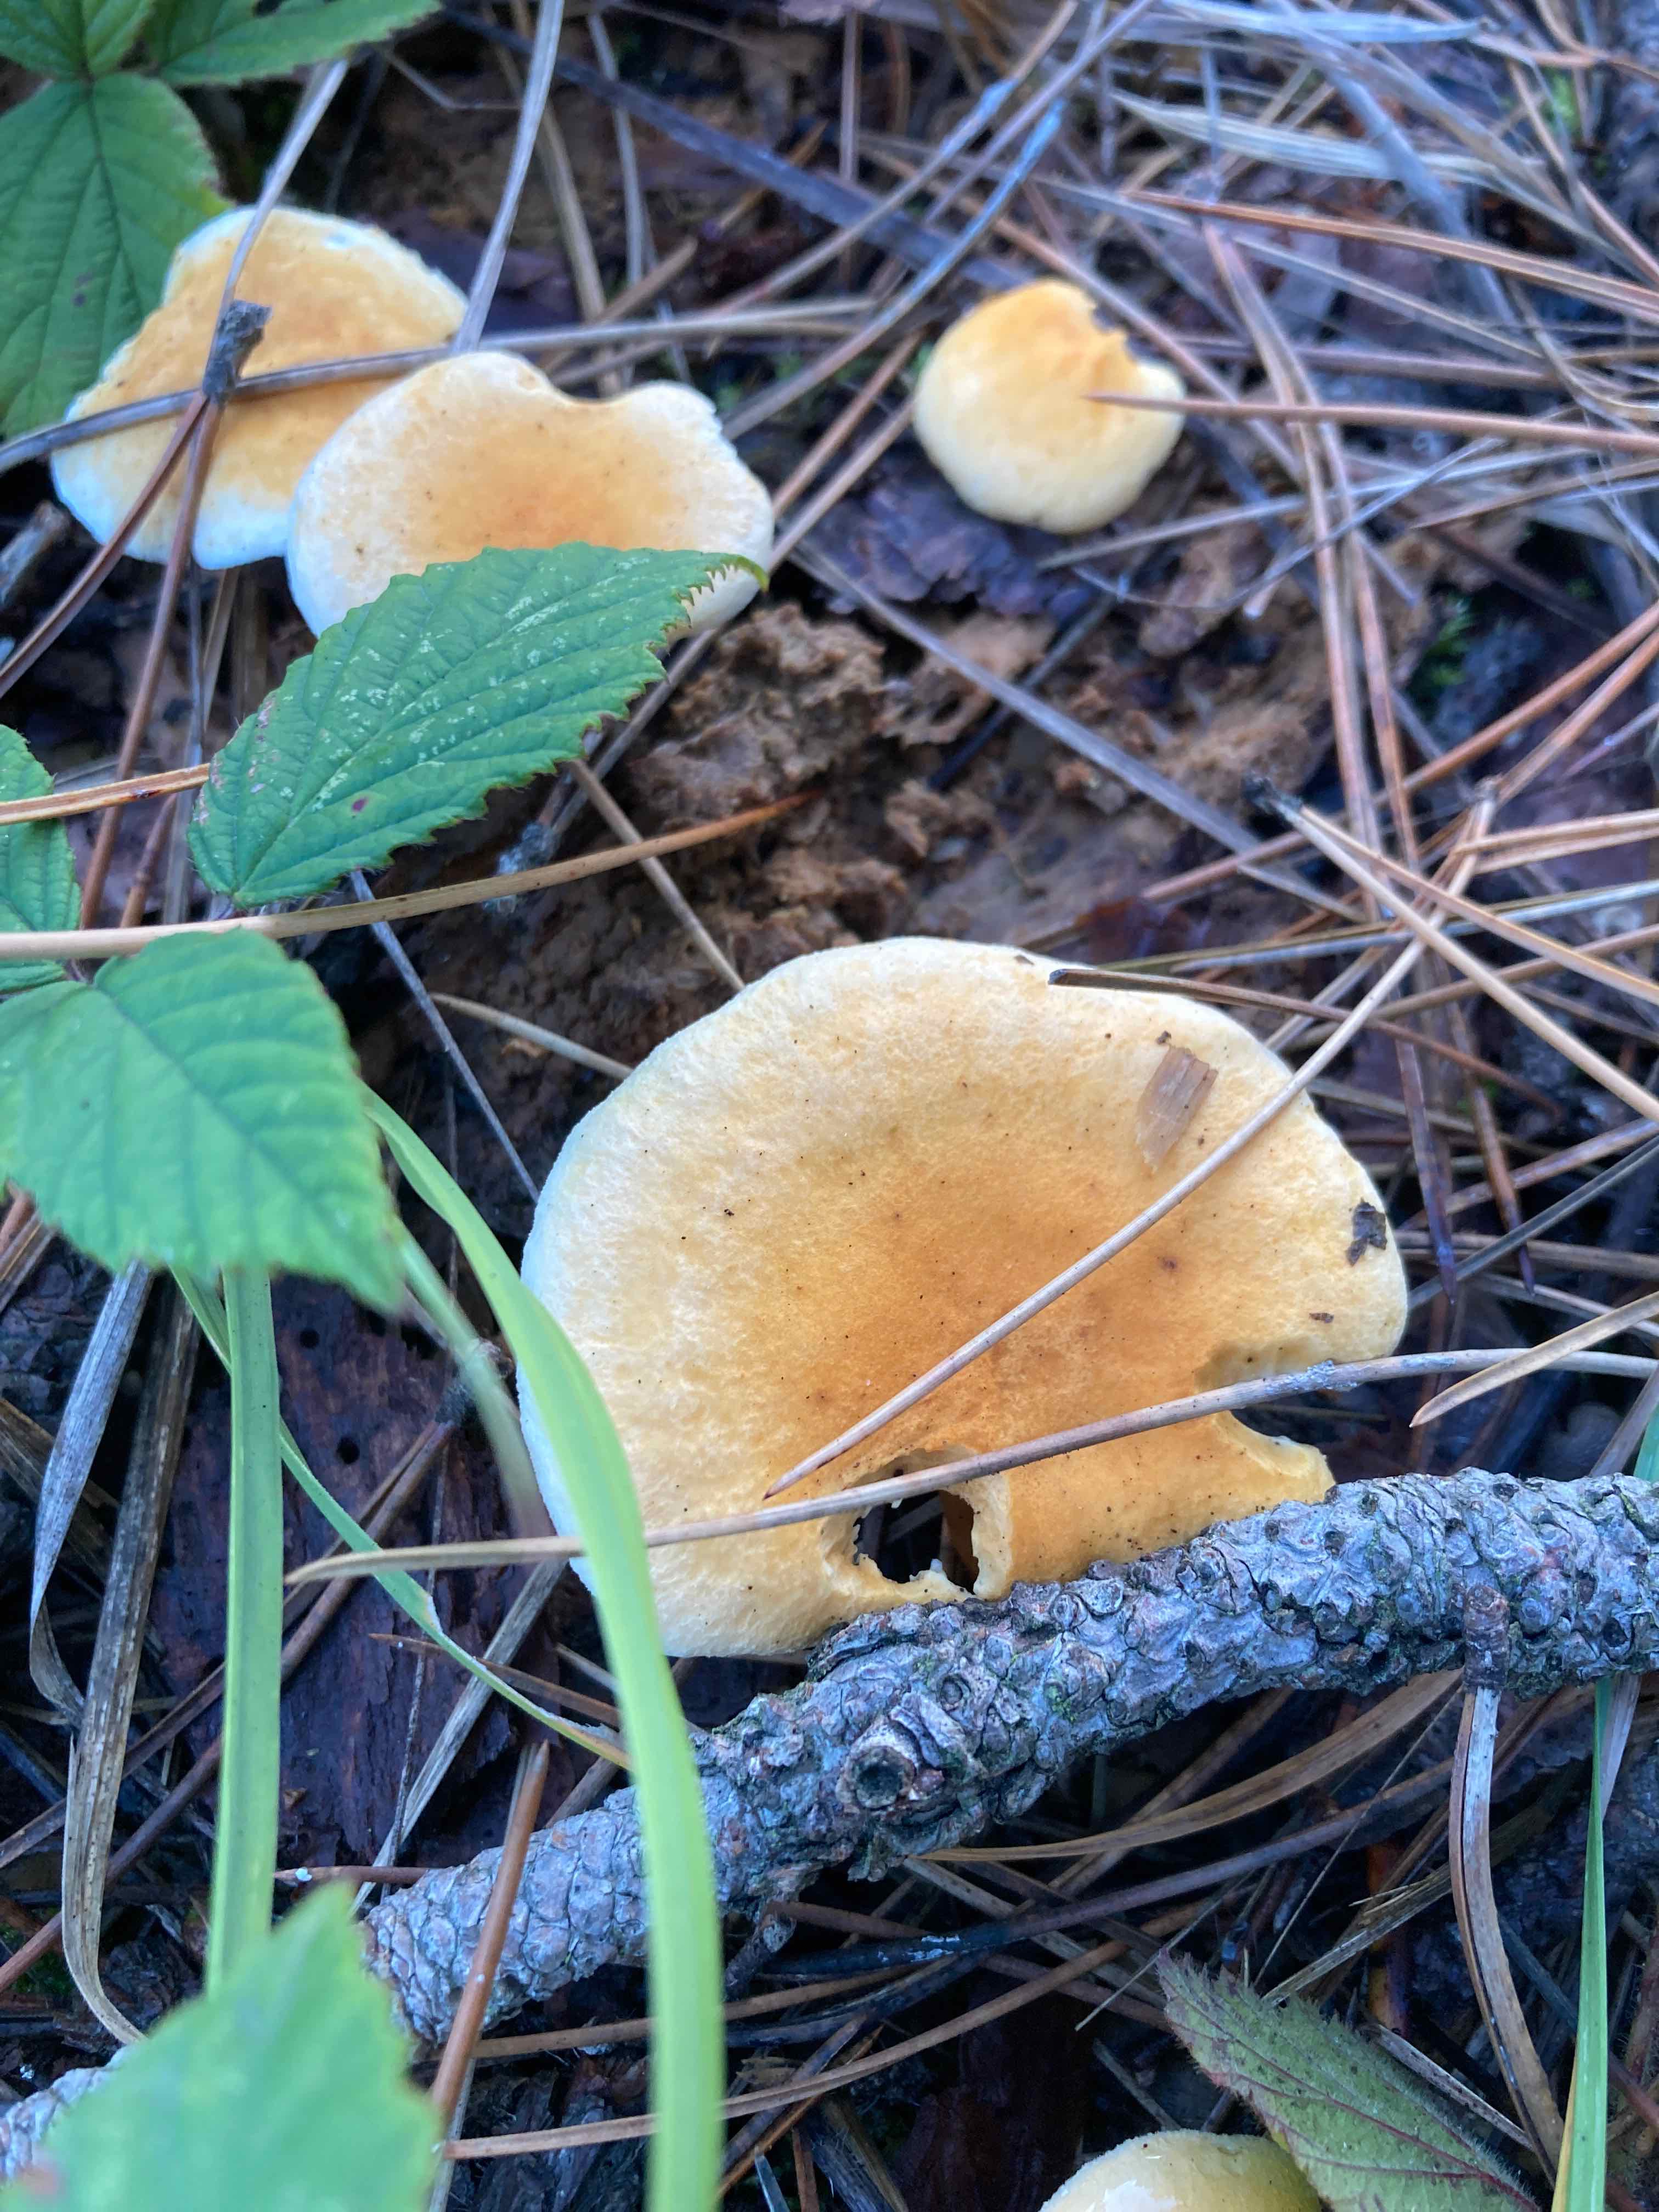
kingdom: Fungi
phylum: Basidiomycota
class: Agaricomycetes
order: Boletales
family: Hygrophoropsidaceae
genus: Hygrophoropsis
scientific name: Hygrophoropsis aurantiaca
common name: almindelig orangekantarel
